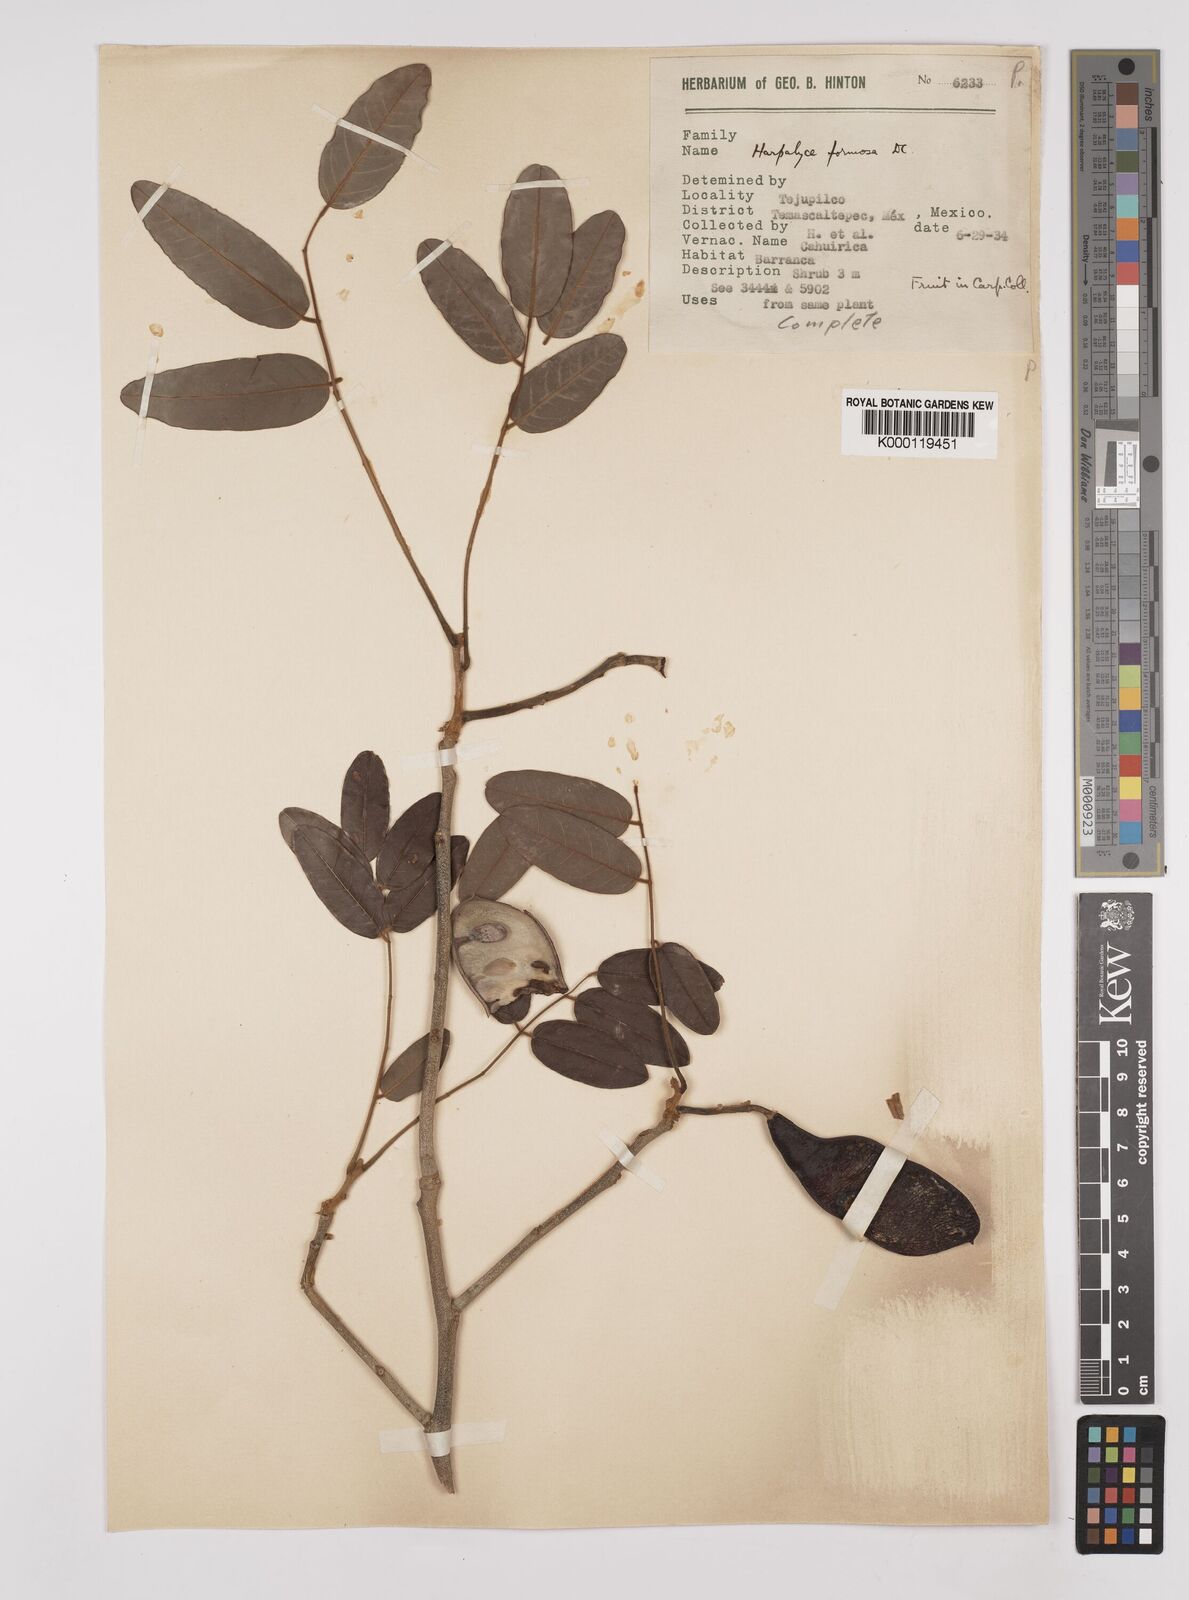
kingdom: Plantae
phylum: Tracheophyta
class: Magnoliopsida
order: Fabales
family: Fabaceae
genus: Harpalyce
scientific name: Harpalyce formosa
